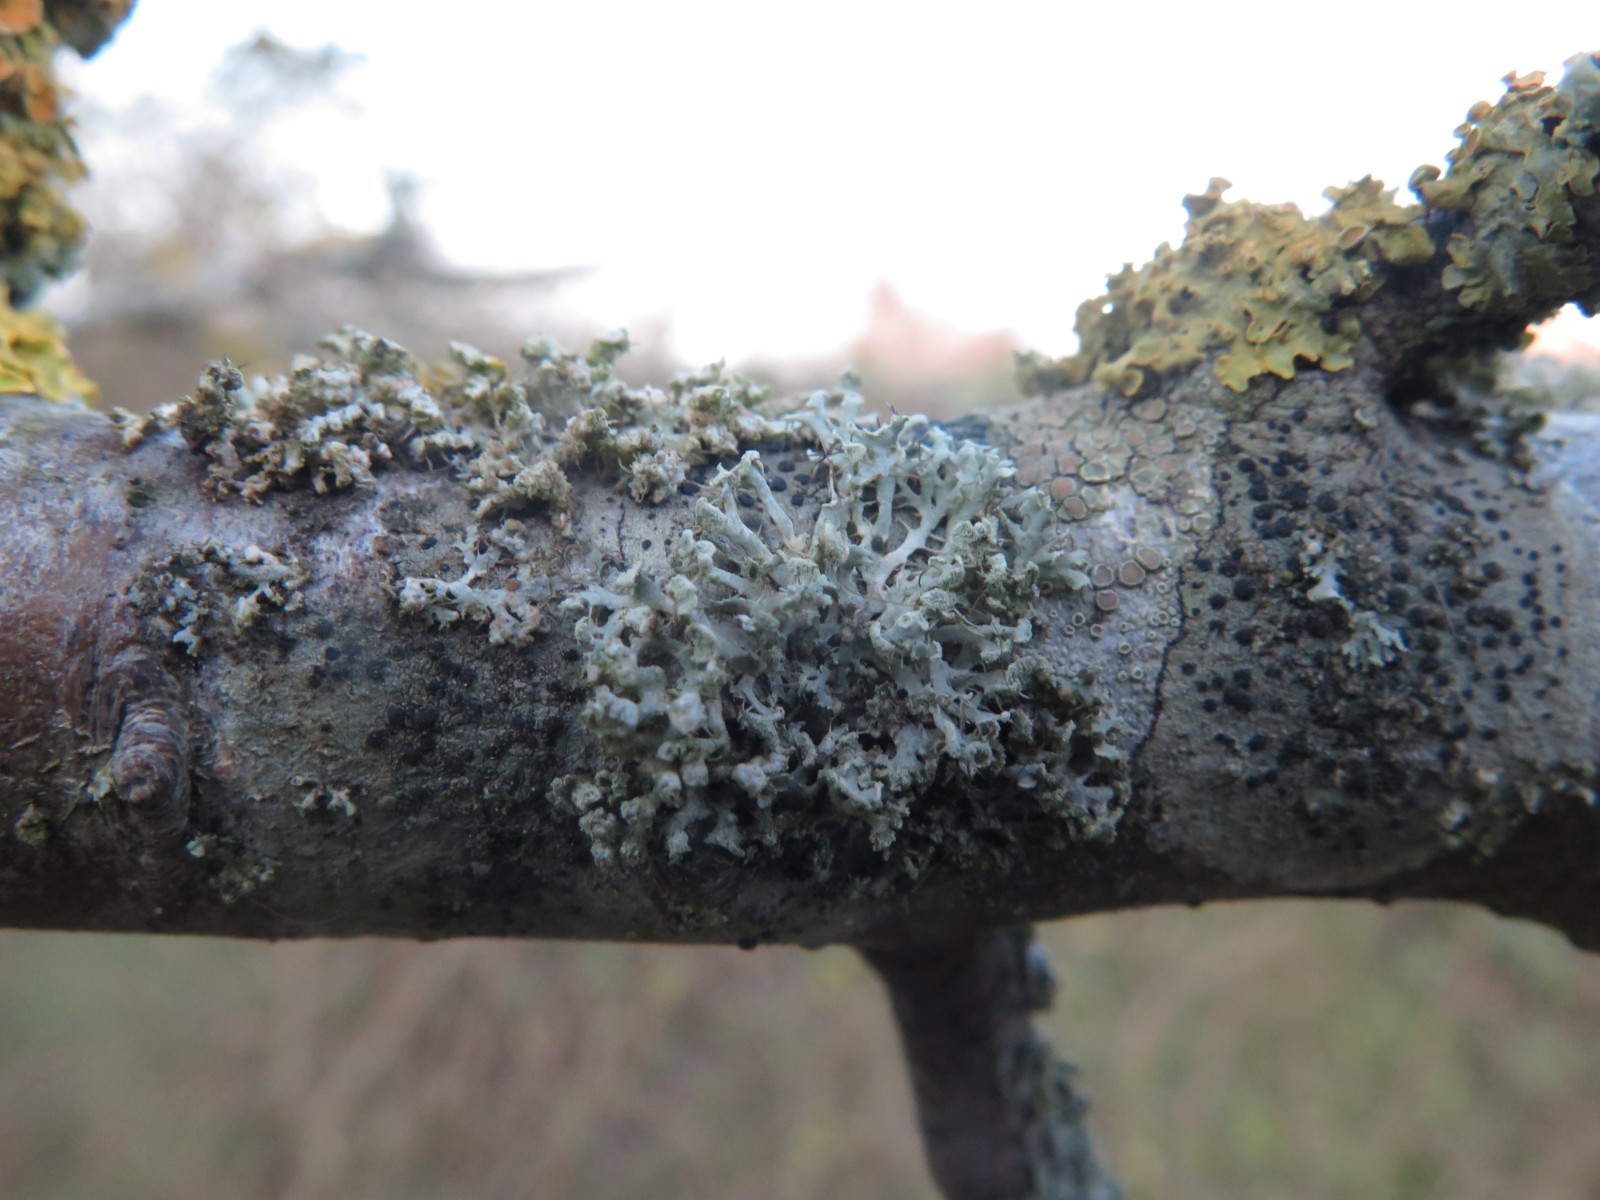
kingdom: Fungi
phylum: Ascomycota
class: Lecanoromycetes
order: Caliciales
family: Physciaceae
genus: Physcia
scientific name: Physcia adscendens
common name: hætte-rosetlav
